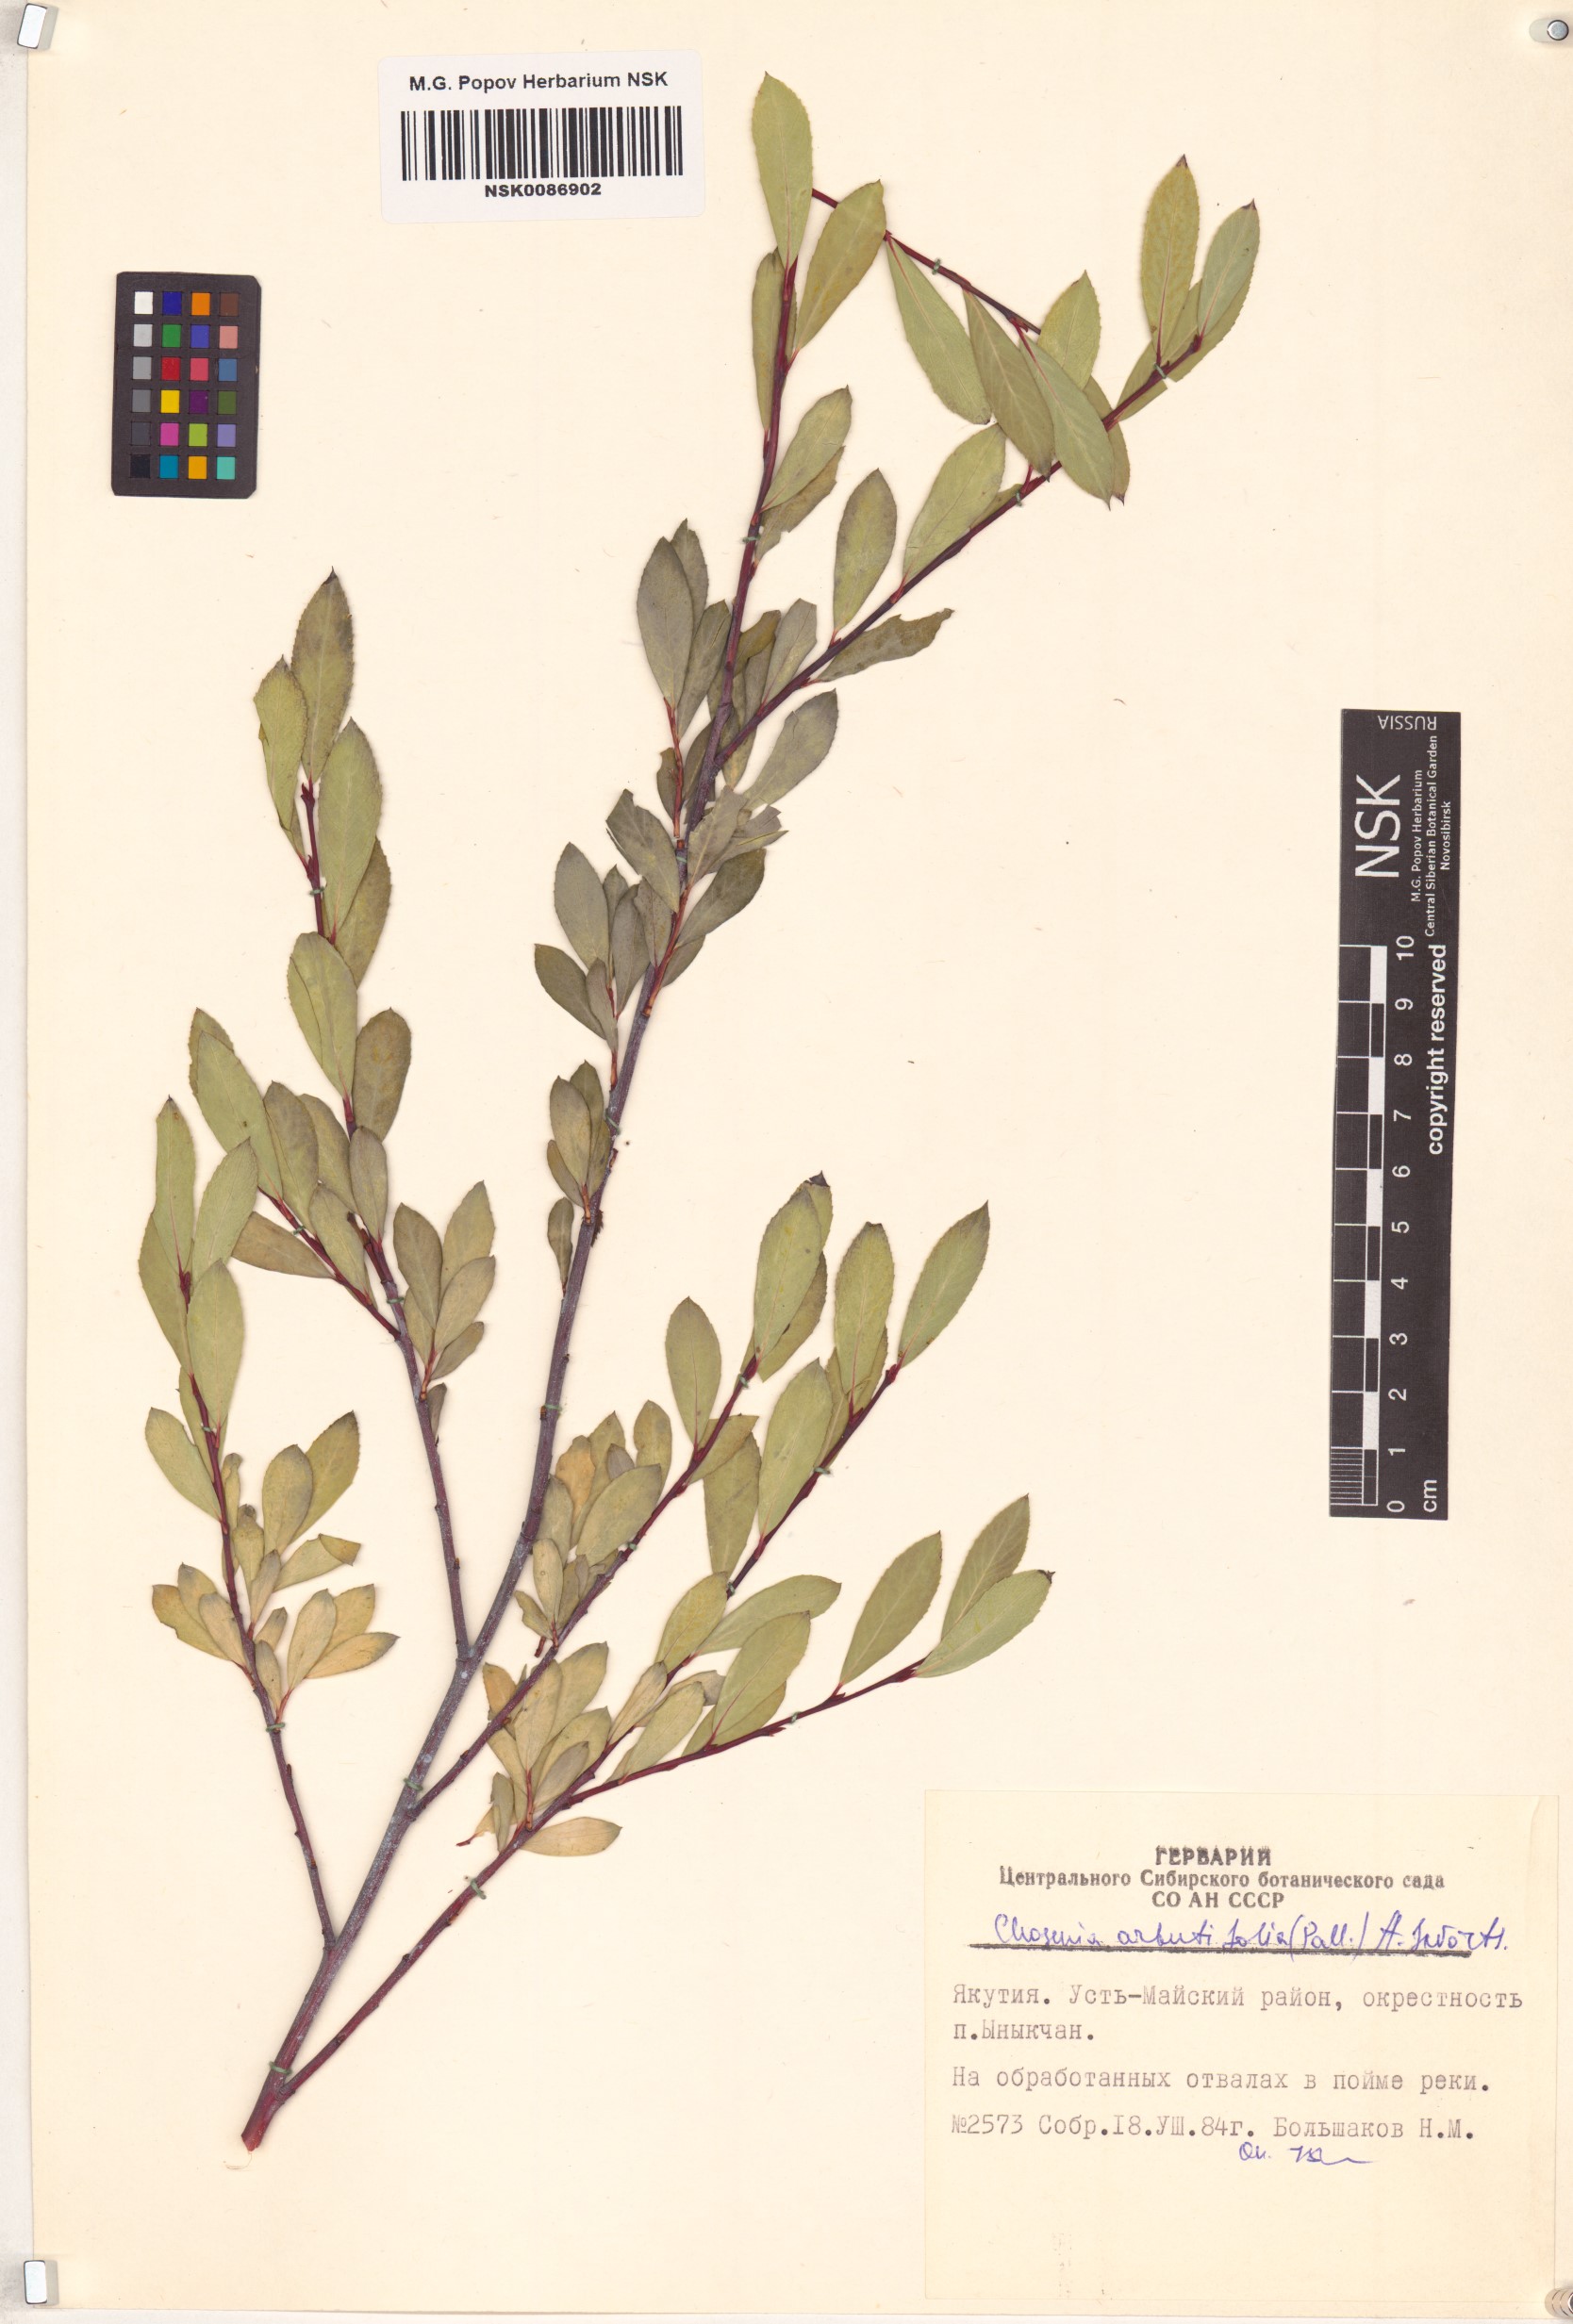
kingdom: Plantae
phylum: Tracheophyta
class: Magnoliopsida
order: Malpighiales
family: Salicaceae
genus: Chosenia
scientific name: Chosenia arbutifolia
